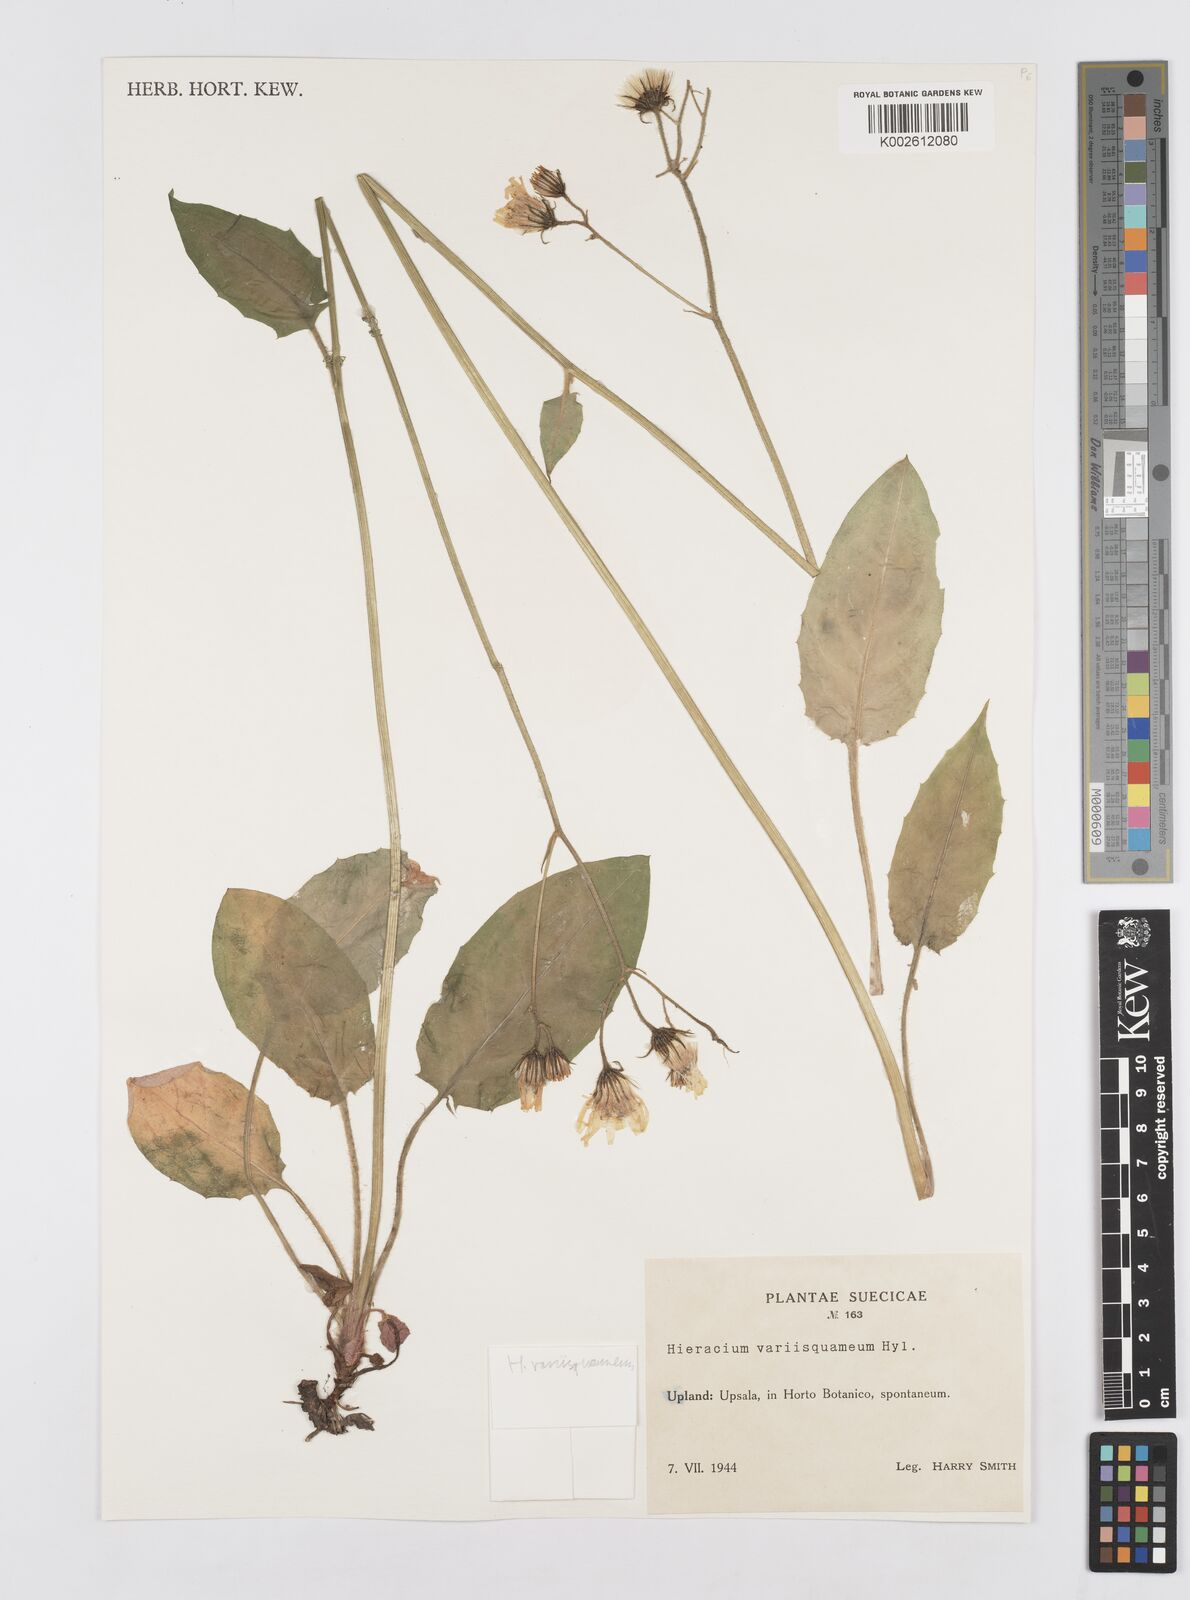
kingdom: Plantae
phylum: Tracheophyta
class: Magnoliopsida
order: Asterales
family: Asteraceae
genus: Hieracium
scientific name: Hieracium murorum
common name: Wall hawkweed
